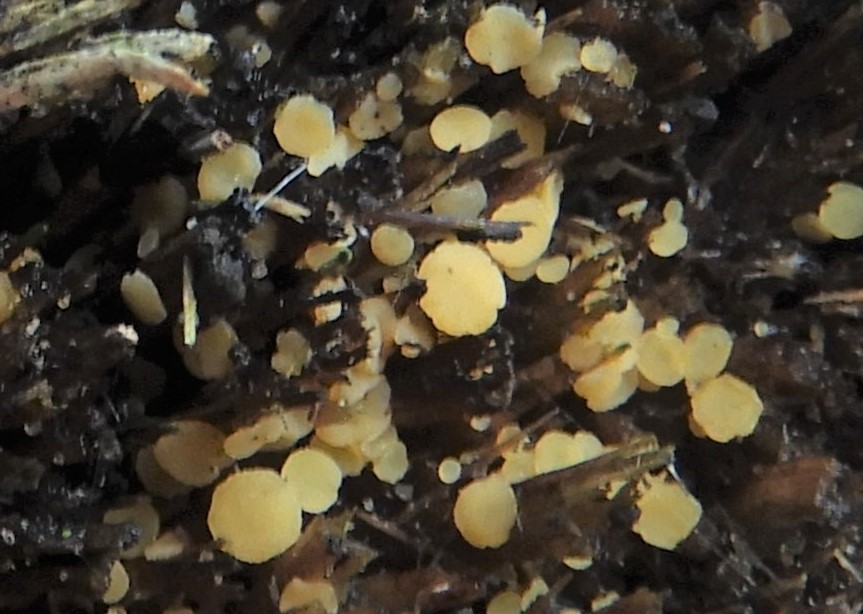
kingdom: Fungi
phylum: Ascomycota
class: Leotiomycetes
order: Helotiales
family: Helotiaceae
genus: Bisporella
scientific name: Bisporella
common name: snitskive
